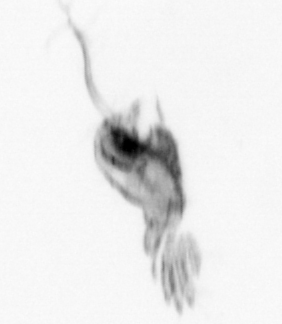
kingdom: Animalia
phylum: Arthropoda
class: Copepoda
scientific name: Copepoda
